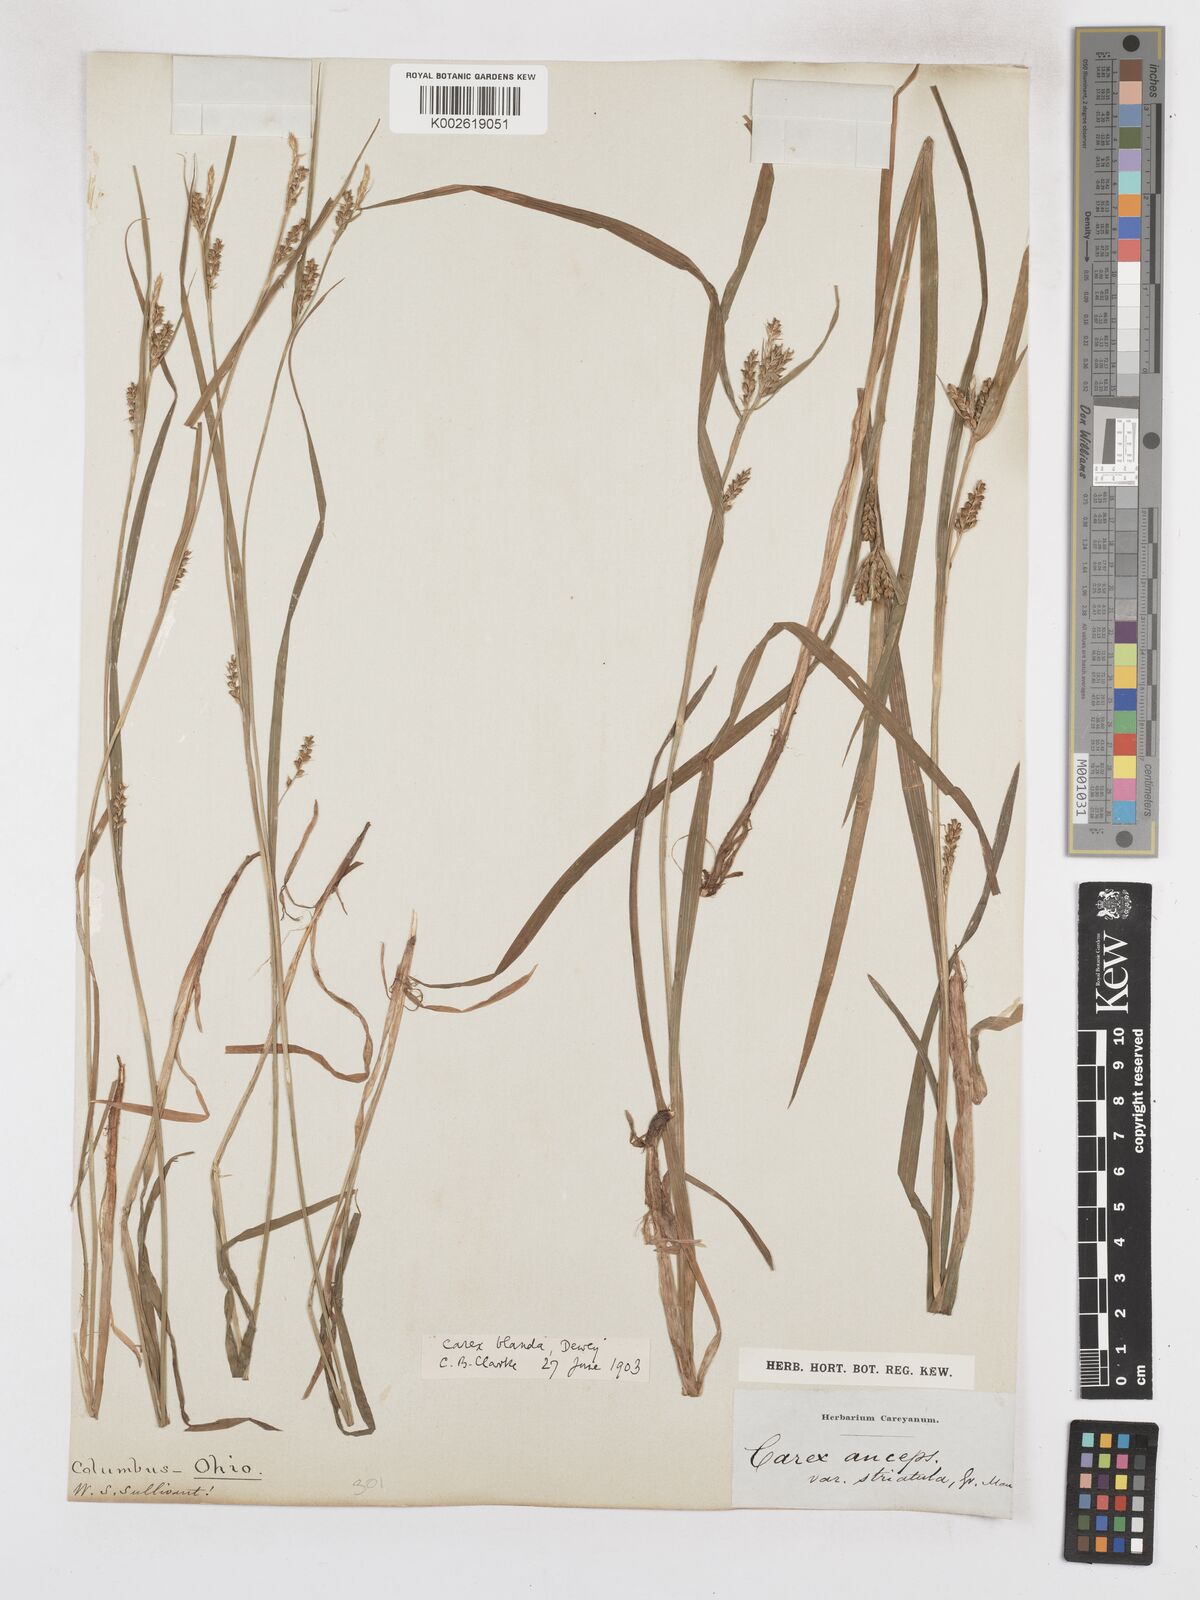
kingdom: Plantae
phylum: Tracheophyta
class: Liliopsida
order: Poales
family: Cyperaceae
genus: Carex
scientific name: Carex blanda
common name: Bland sedge
